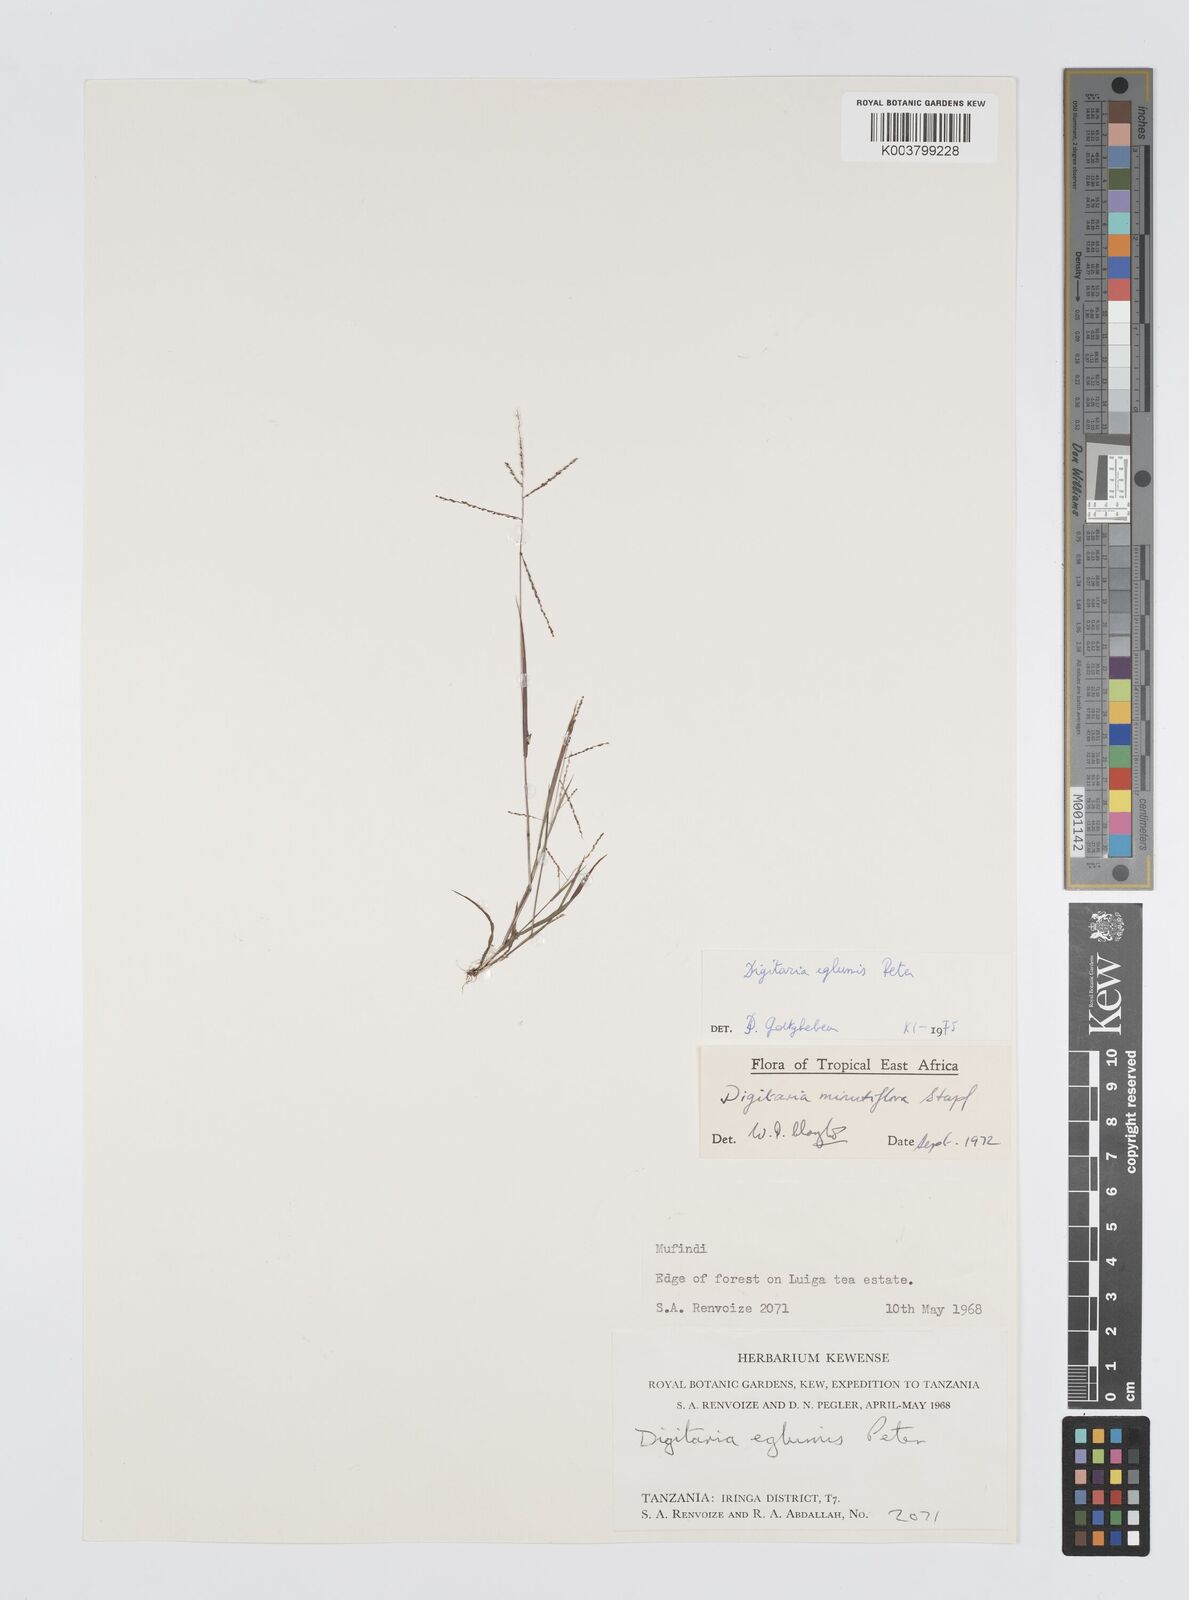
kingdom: Plantae
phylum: Tracheophyta
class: Liliopsida
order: Poales
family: Poaceae
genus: Digitaria
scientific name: Digitaria pseudodiagonalis
